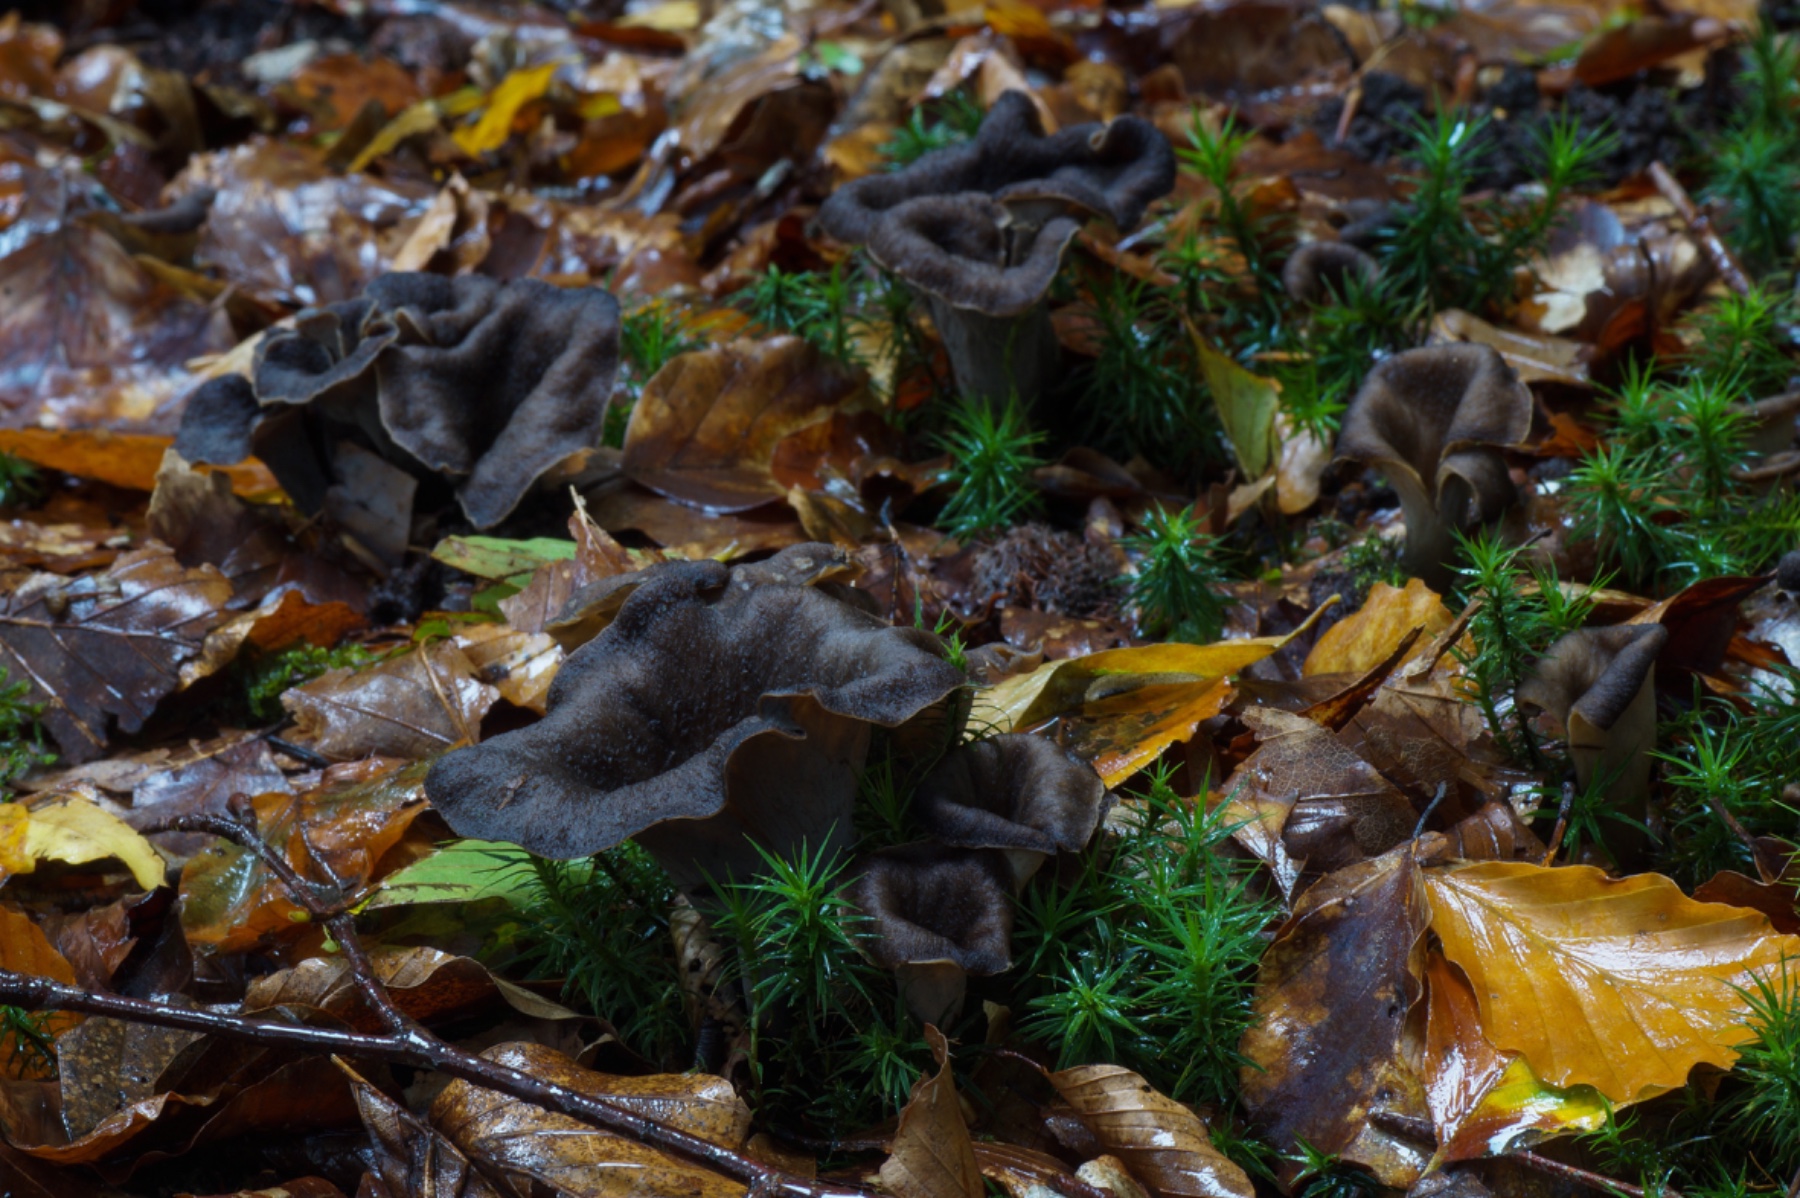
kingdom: Fungi
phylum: Basidiomycota
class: Agaricomycetes
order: Cantharellales
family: Hydnaceae
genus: Craterellus
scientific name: Craterellus cornucopioides
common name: trompetsvamp
